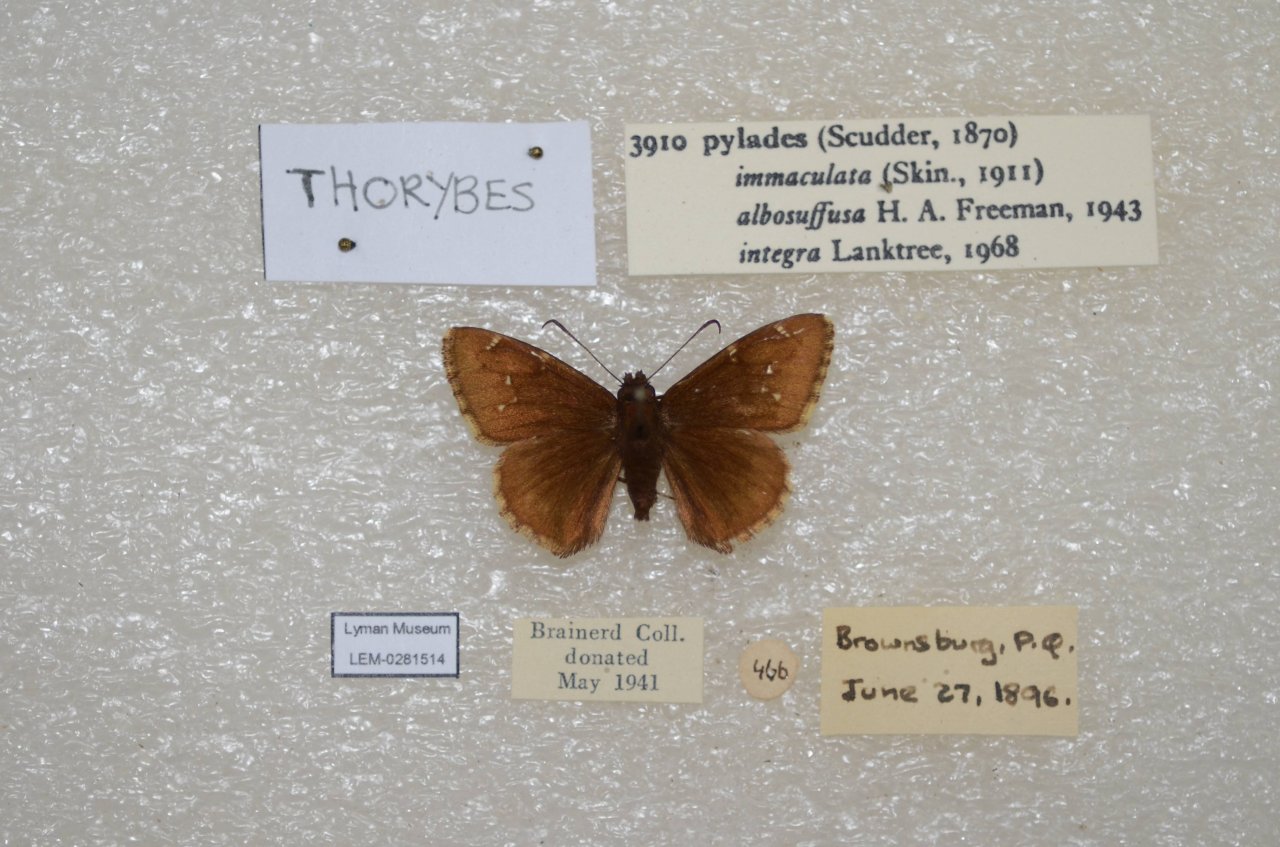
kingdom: Animalia
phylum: Arthropoda
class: Insecta
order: Lepidoptera
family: Hesperiidae
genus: Autochton
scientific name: Autochton
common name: Northern Cloudywing
